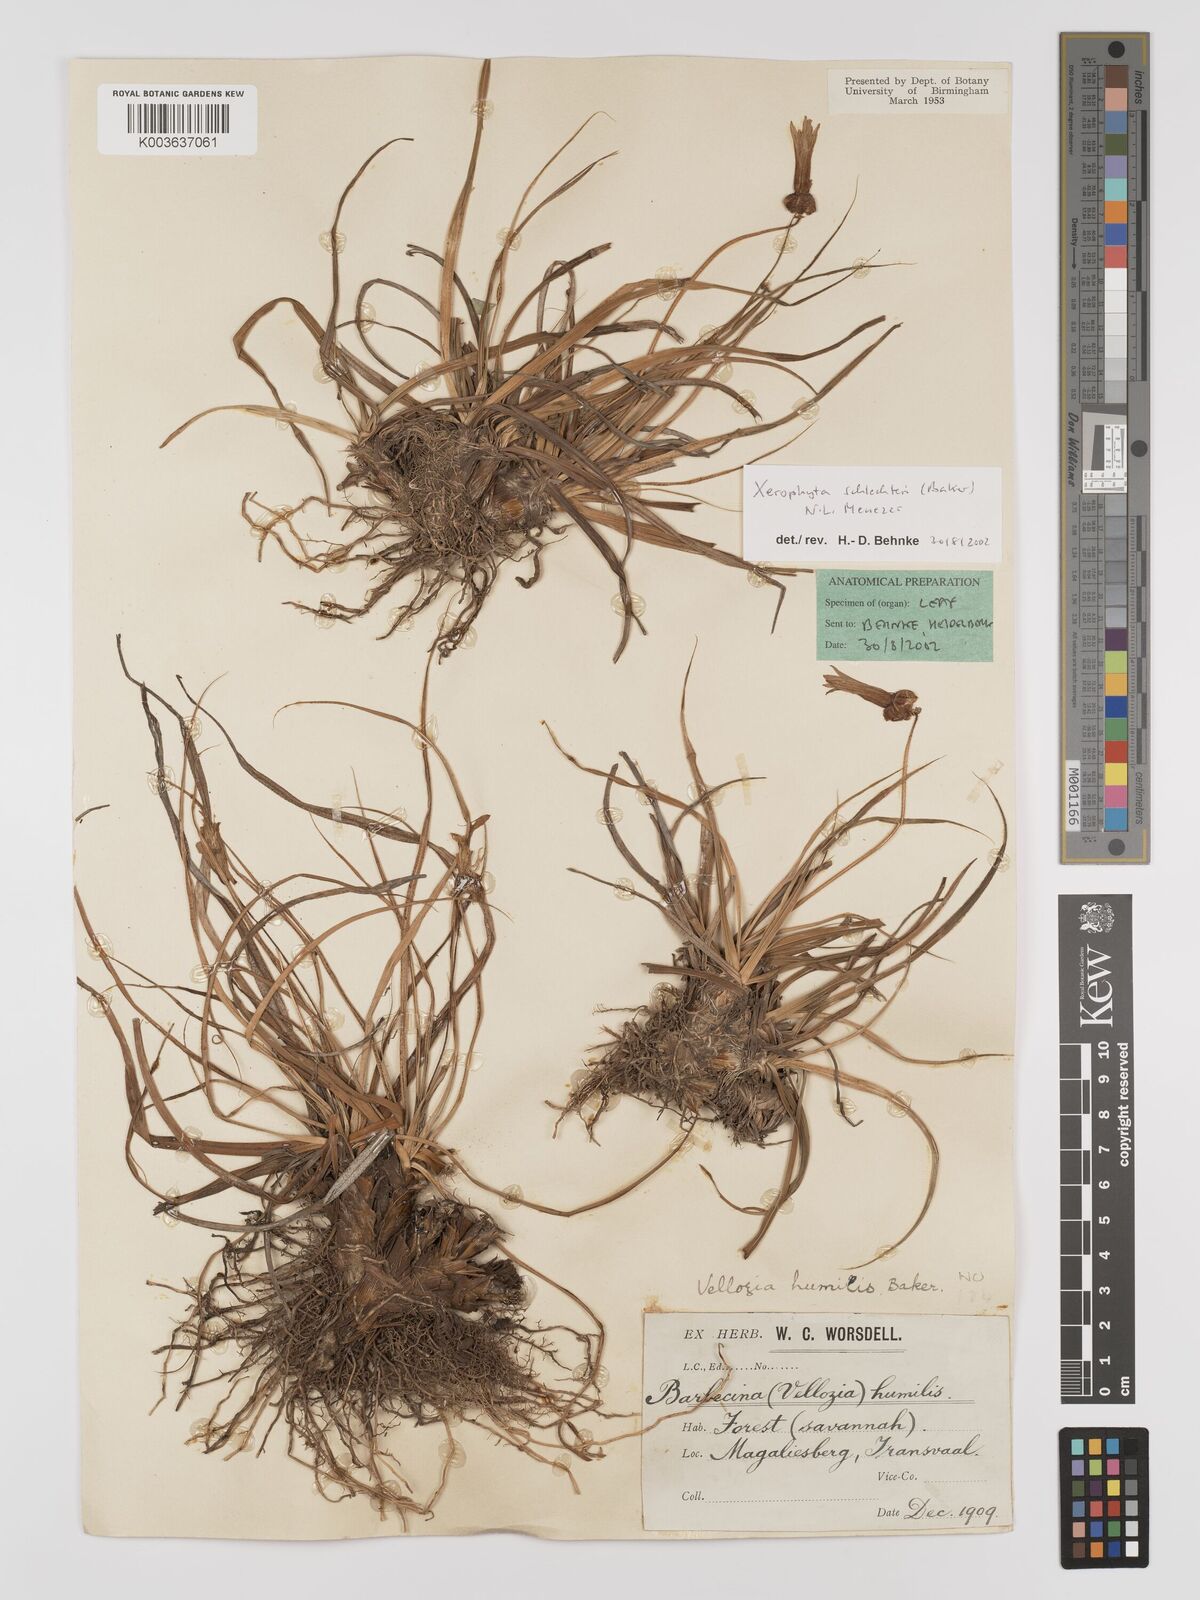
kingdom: Plantae
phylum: Tracheophyta
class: Liliopsida
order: Pandanales
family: Velloziaceae
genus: Xerophyta
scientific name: Xerophyta schlechteri
